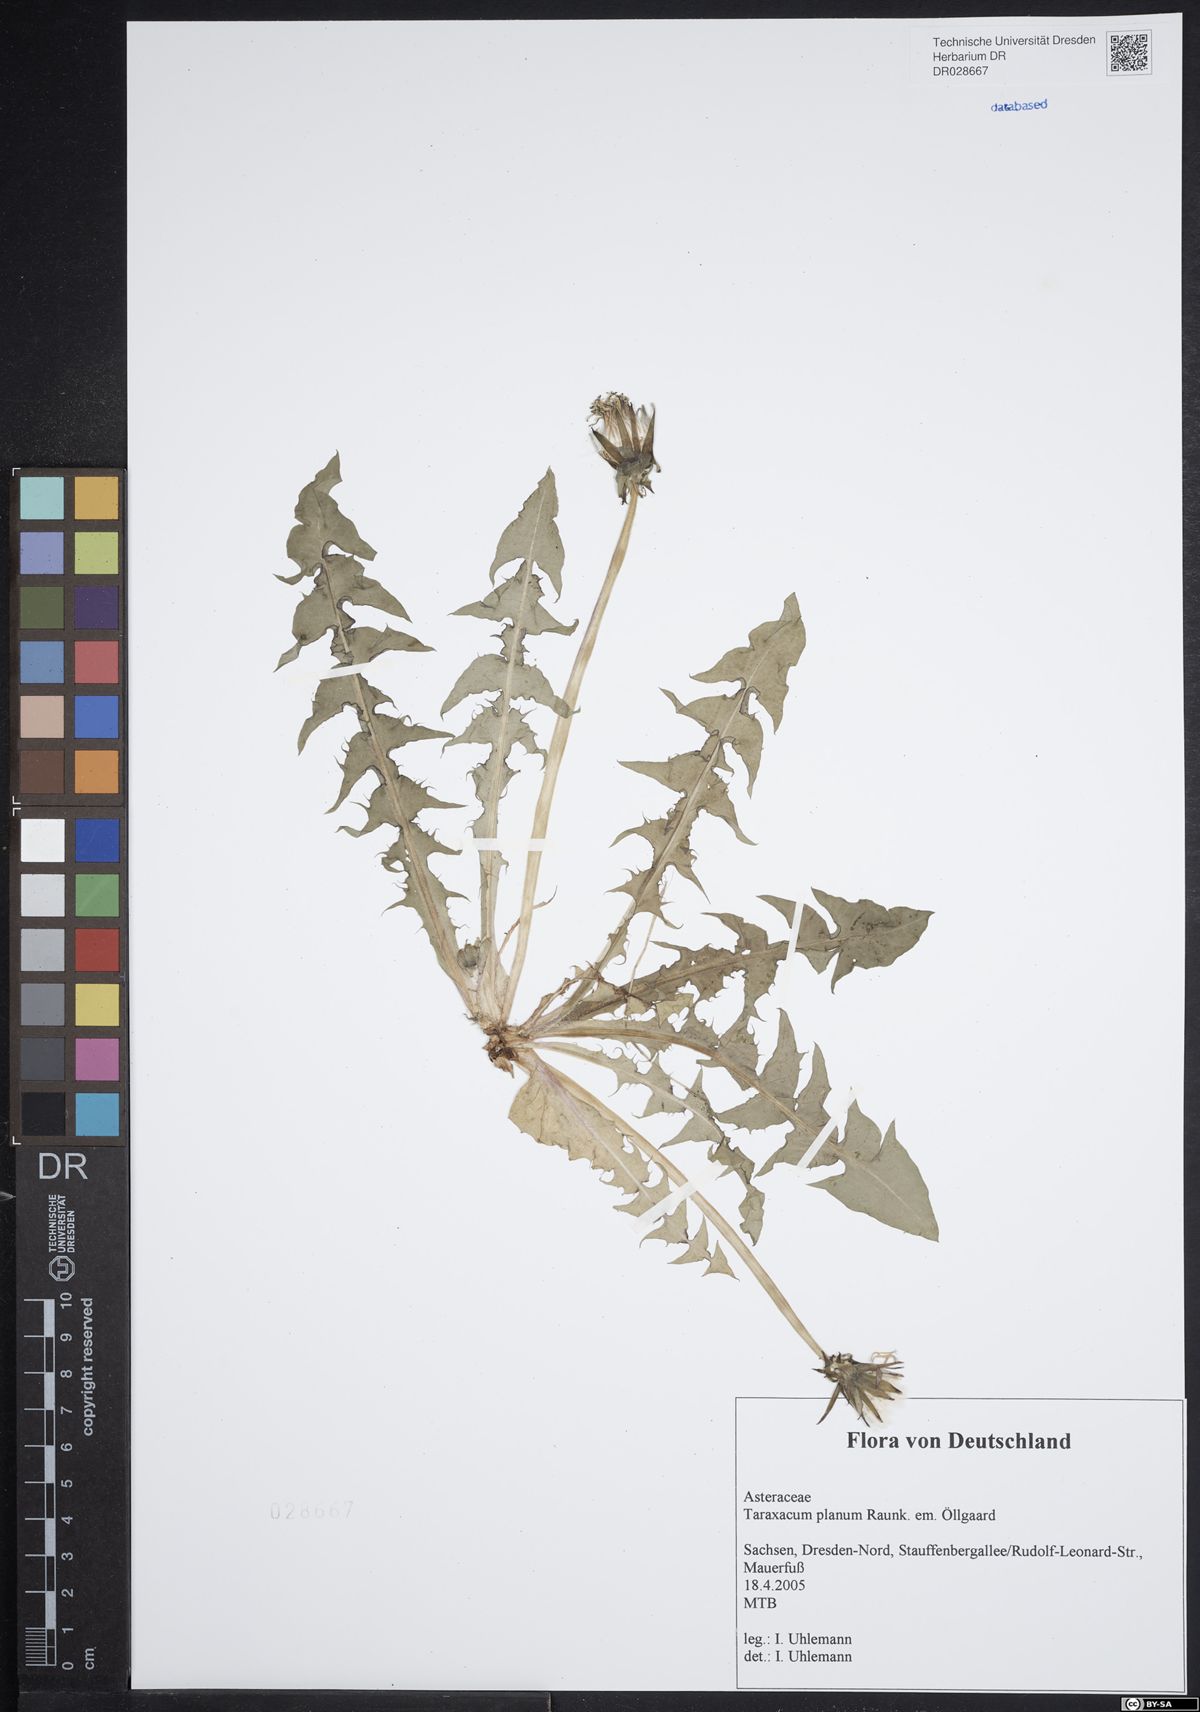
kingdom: Plantae
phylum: Tracheophyta
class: Magnoliopsida
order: Asterales
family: Asteraceae
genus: Taraxacum
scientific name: Taraxacum planum
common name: Diverse-leaved dandelion
